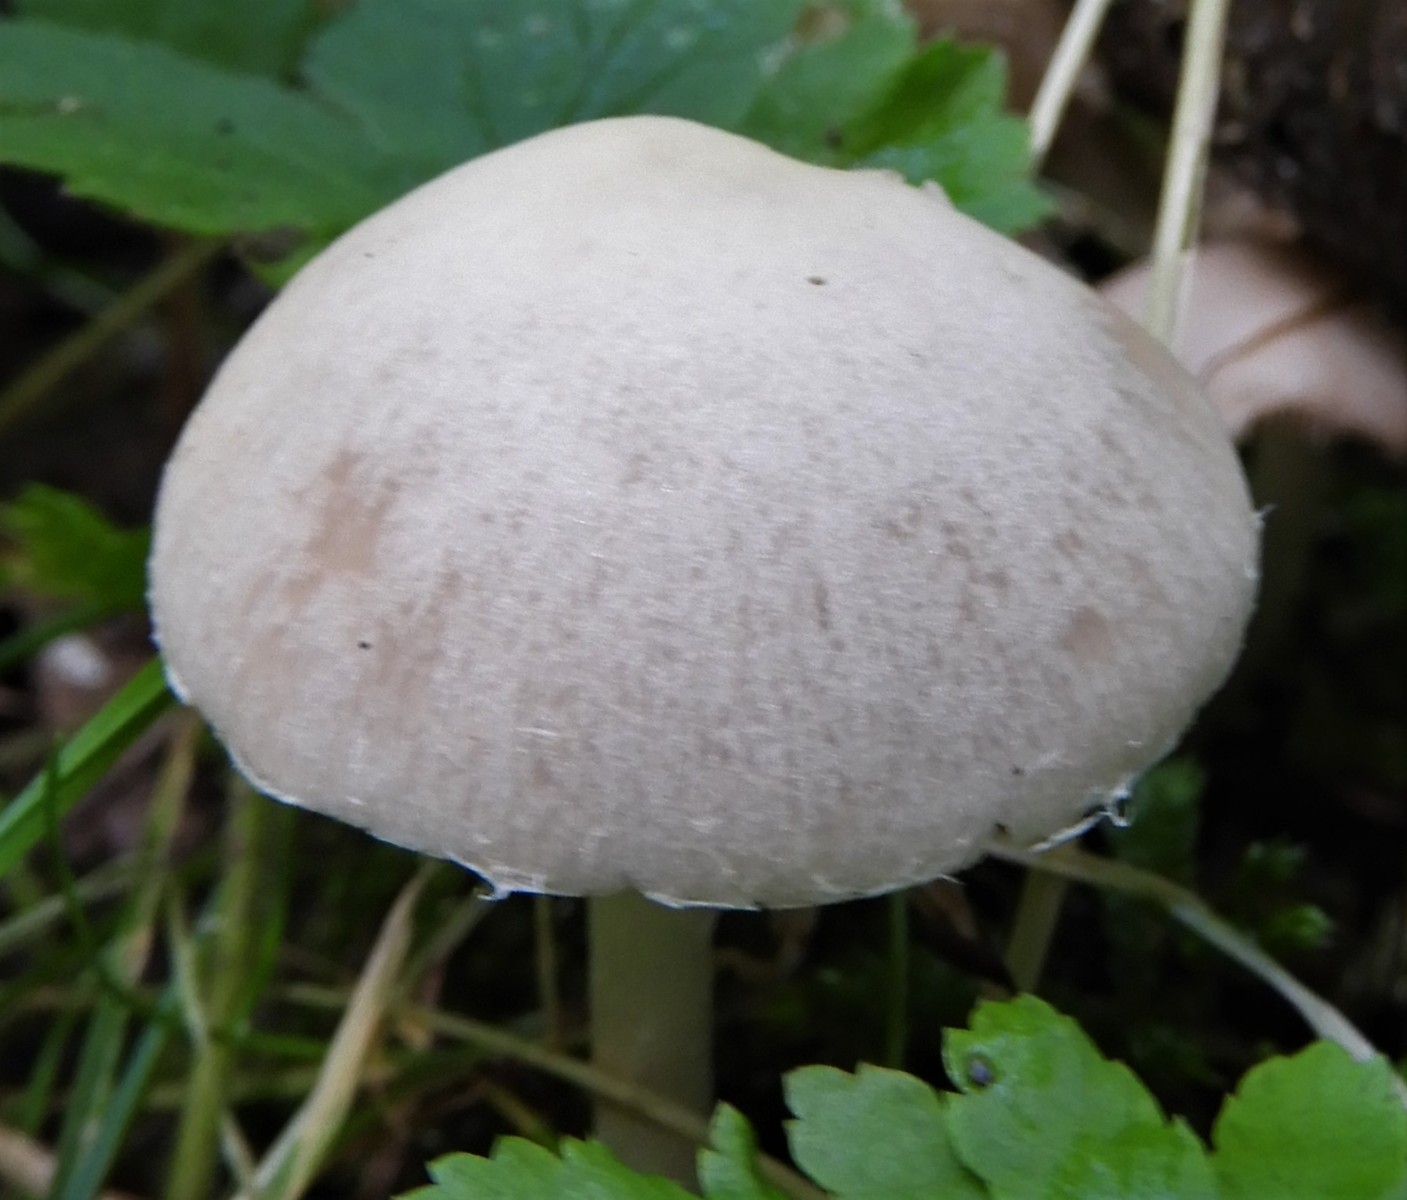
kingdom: Fungi
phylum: Basidiomycota
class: Agaricomycetes
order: Agaricales
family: Psathyrellaceae
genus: Candolleomyces
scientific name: Candolleomyces candolleanus
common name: Candolles mørkhat
